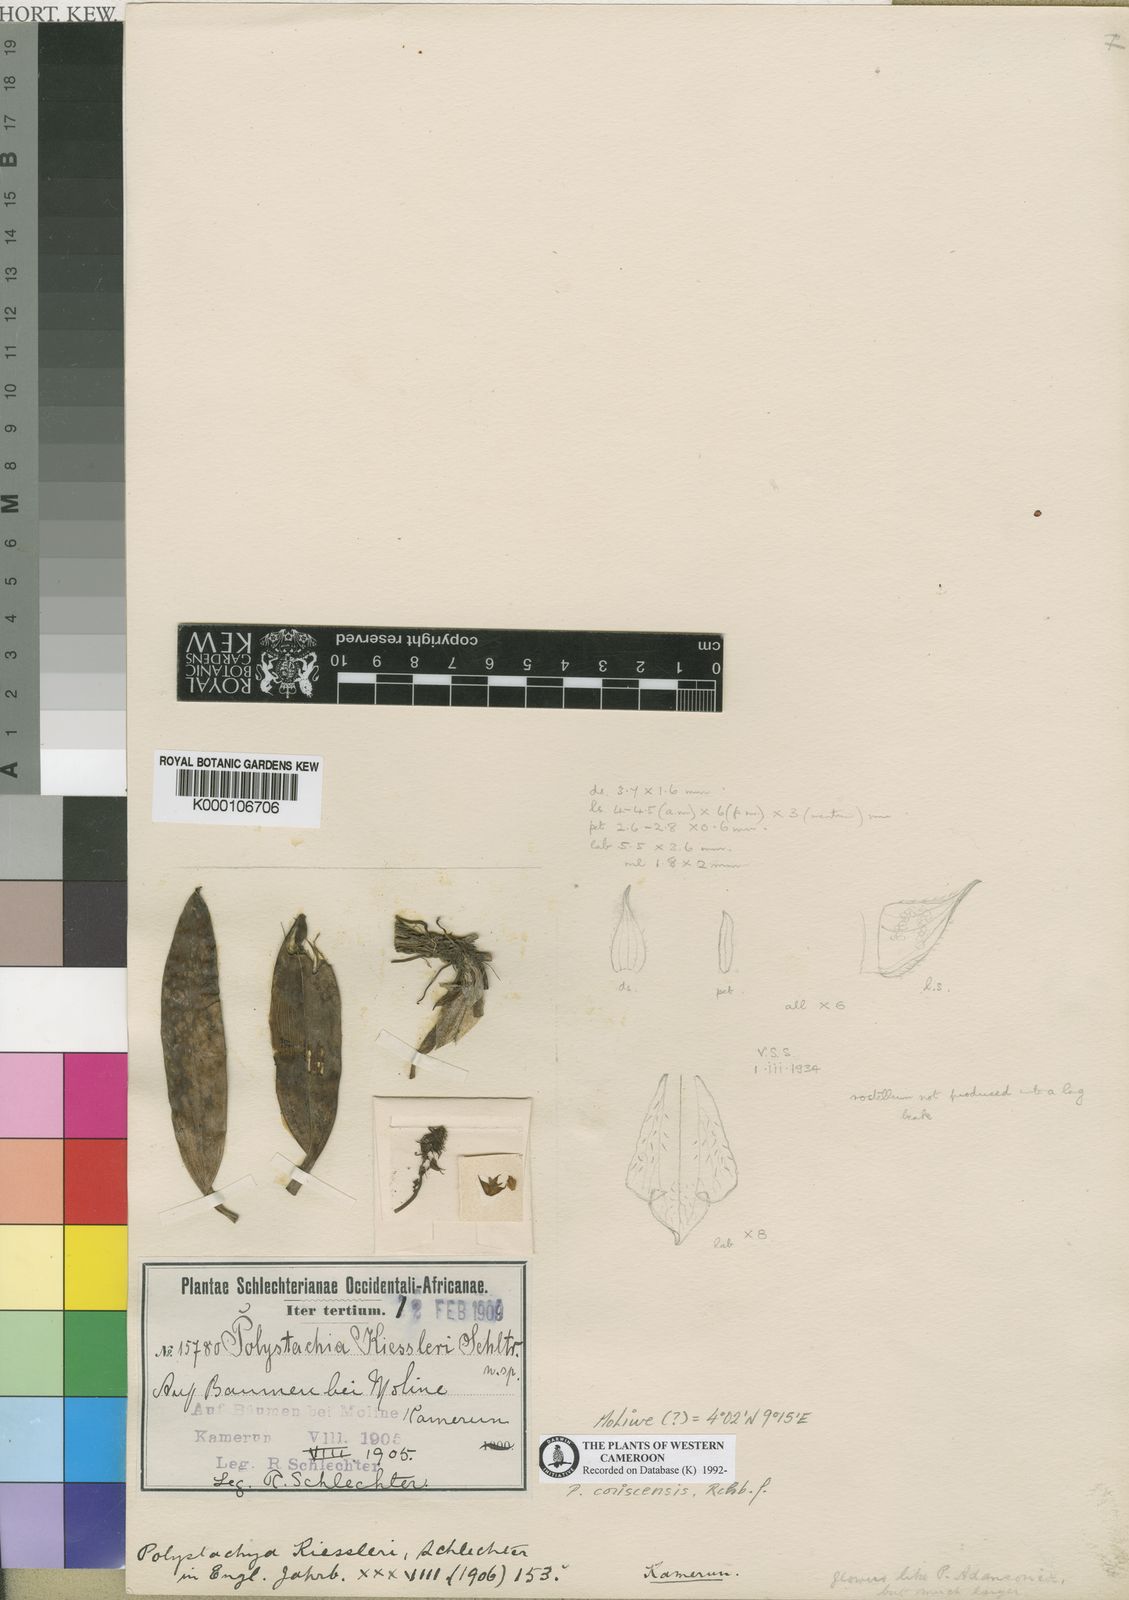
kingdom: Plantae
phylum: Tracheophyta
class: Liliopsida
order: Asparagales
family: Orchidaceae
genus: Polystachya
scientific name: Polystachya coriscensis
